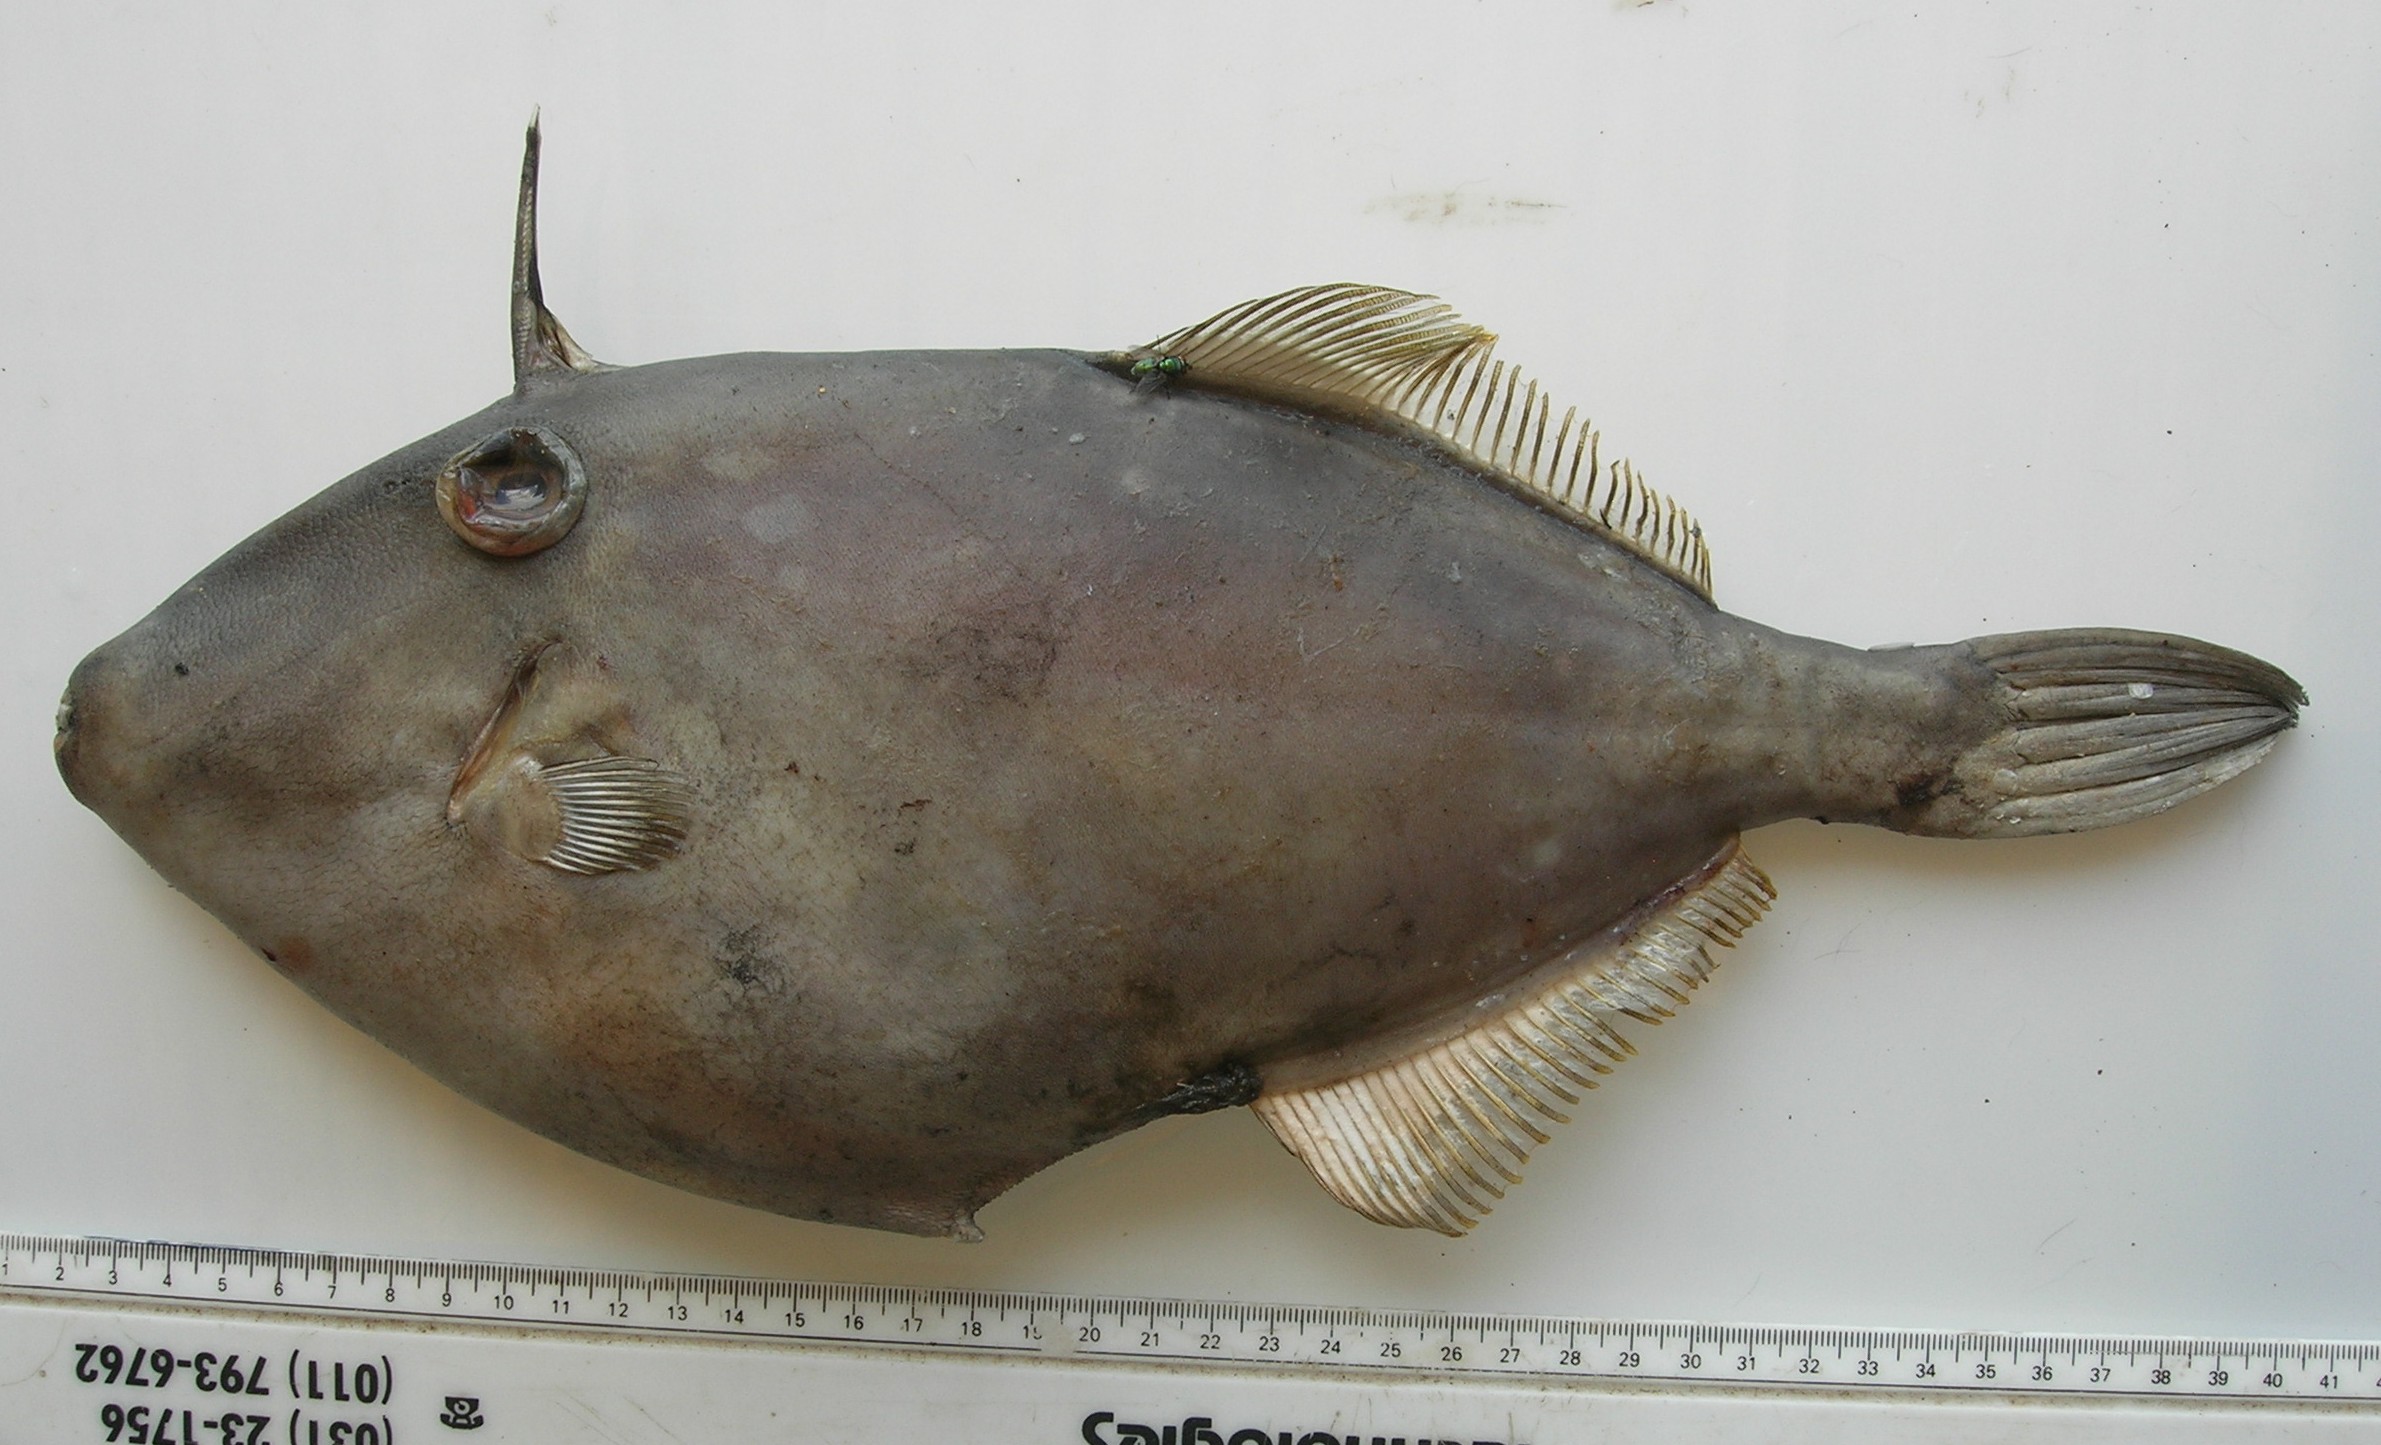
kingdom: Animalia
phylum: Chordata
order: Tetraodontiformes
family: Monacanthidae
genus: Thamnaconus
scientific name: Thamnaconus modestoides
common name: Modest filefish
